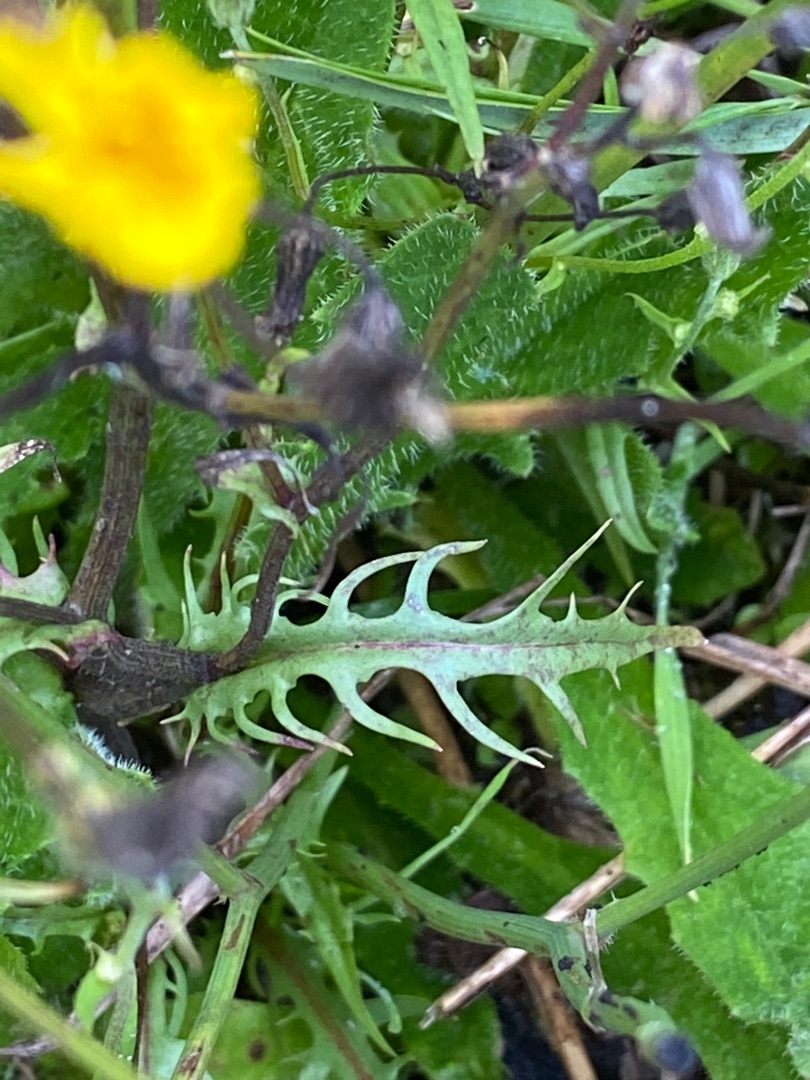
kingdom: Plantae
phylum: Tracheophyta
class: Magnoliopsida
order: Asterales
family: Asteraceae
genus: Crepis
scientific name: Crepis capillaris
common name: Grøn høgeskæg
